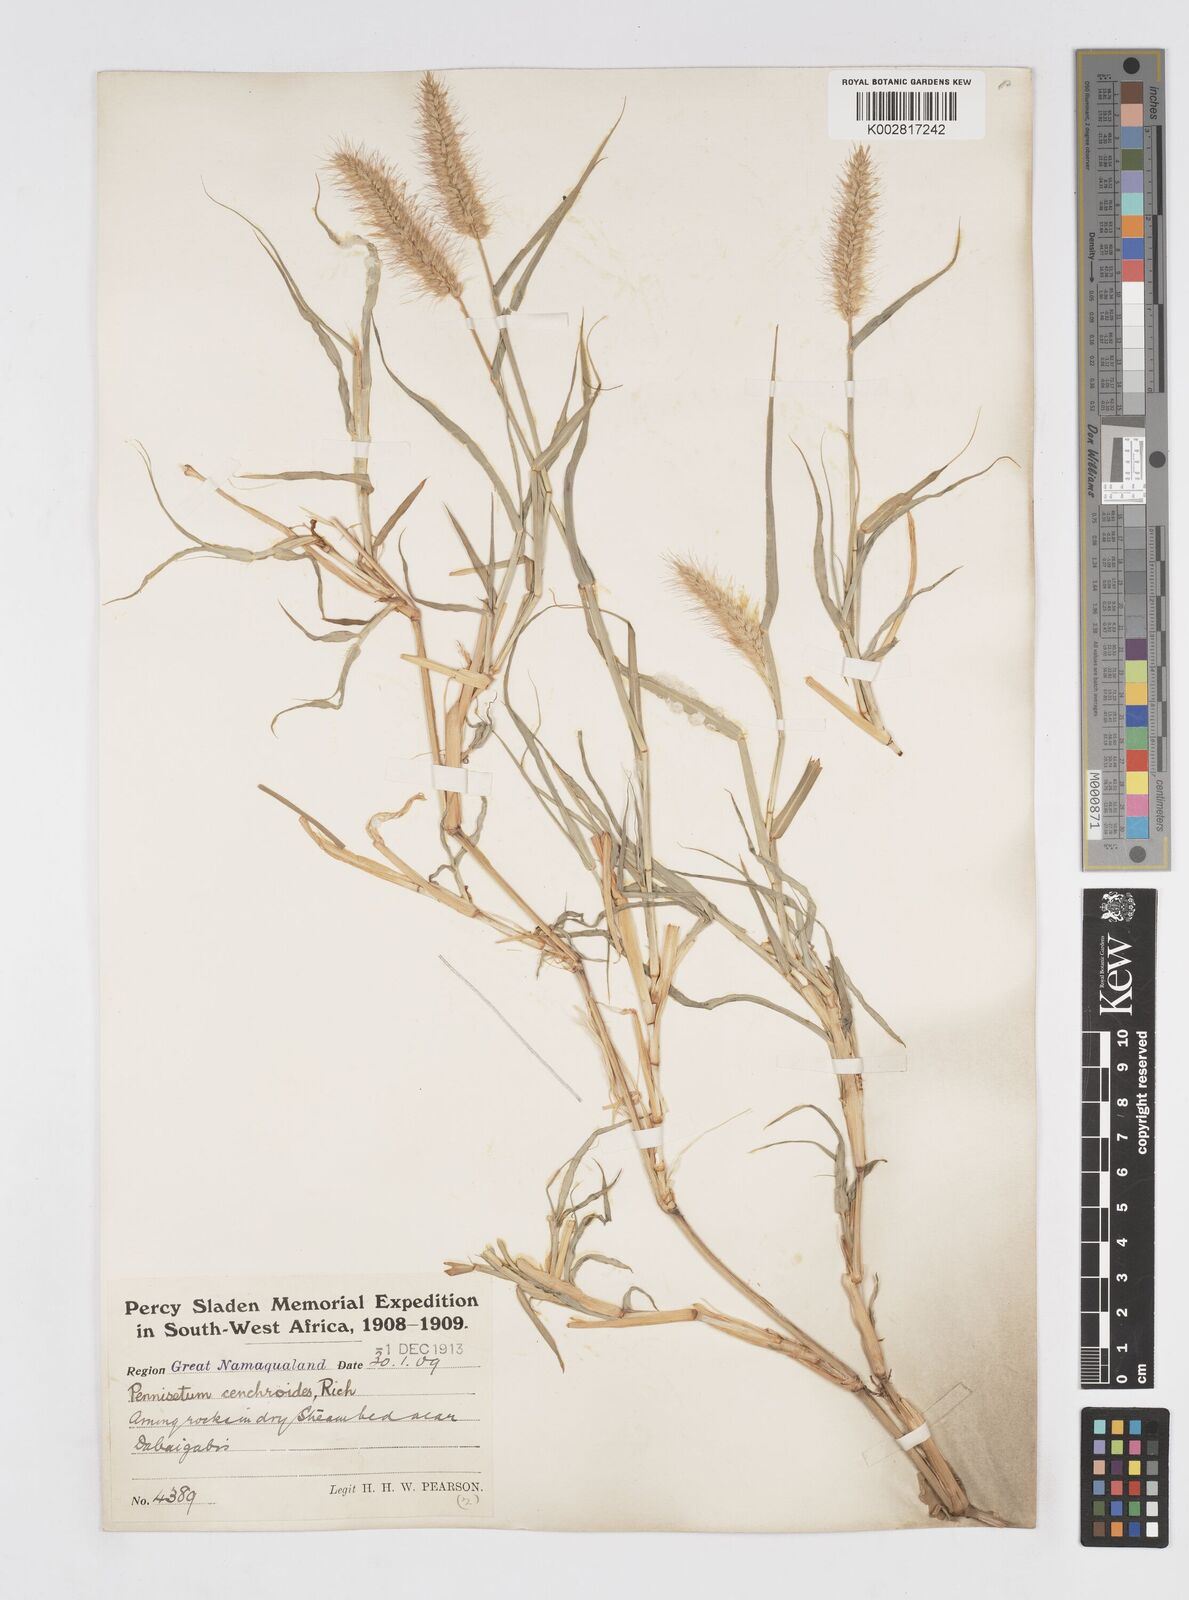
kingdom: Plantae
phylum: Tracheophyta
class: Liliopsida
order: Poales
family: Poaceae
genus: Cenchrus
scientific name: Cenchrus ciliaris
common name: Buffelgrass
